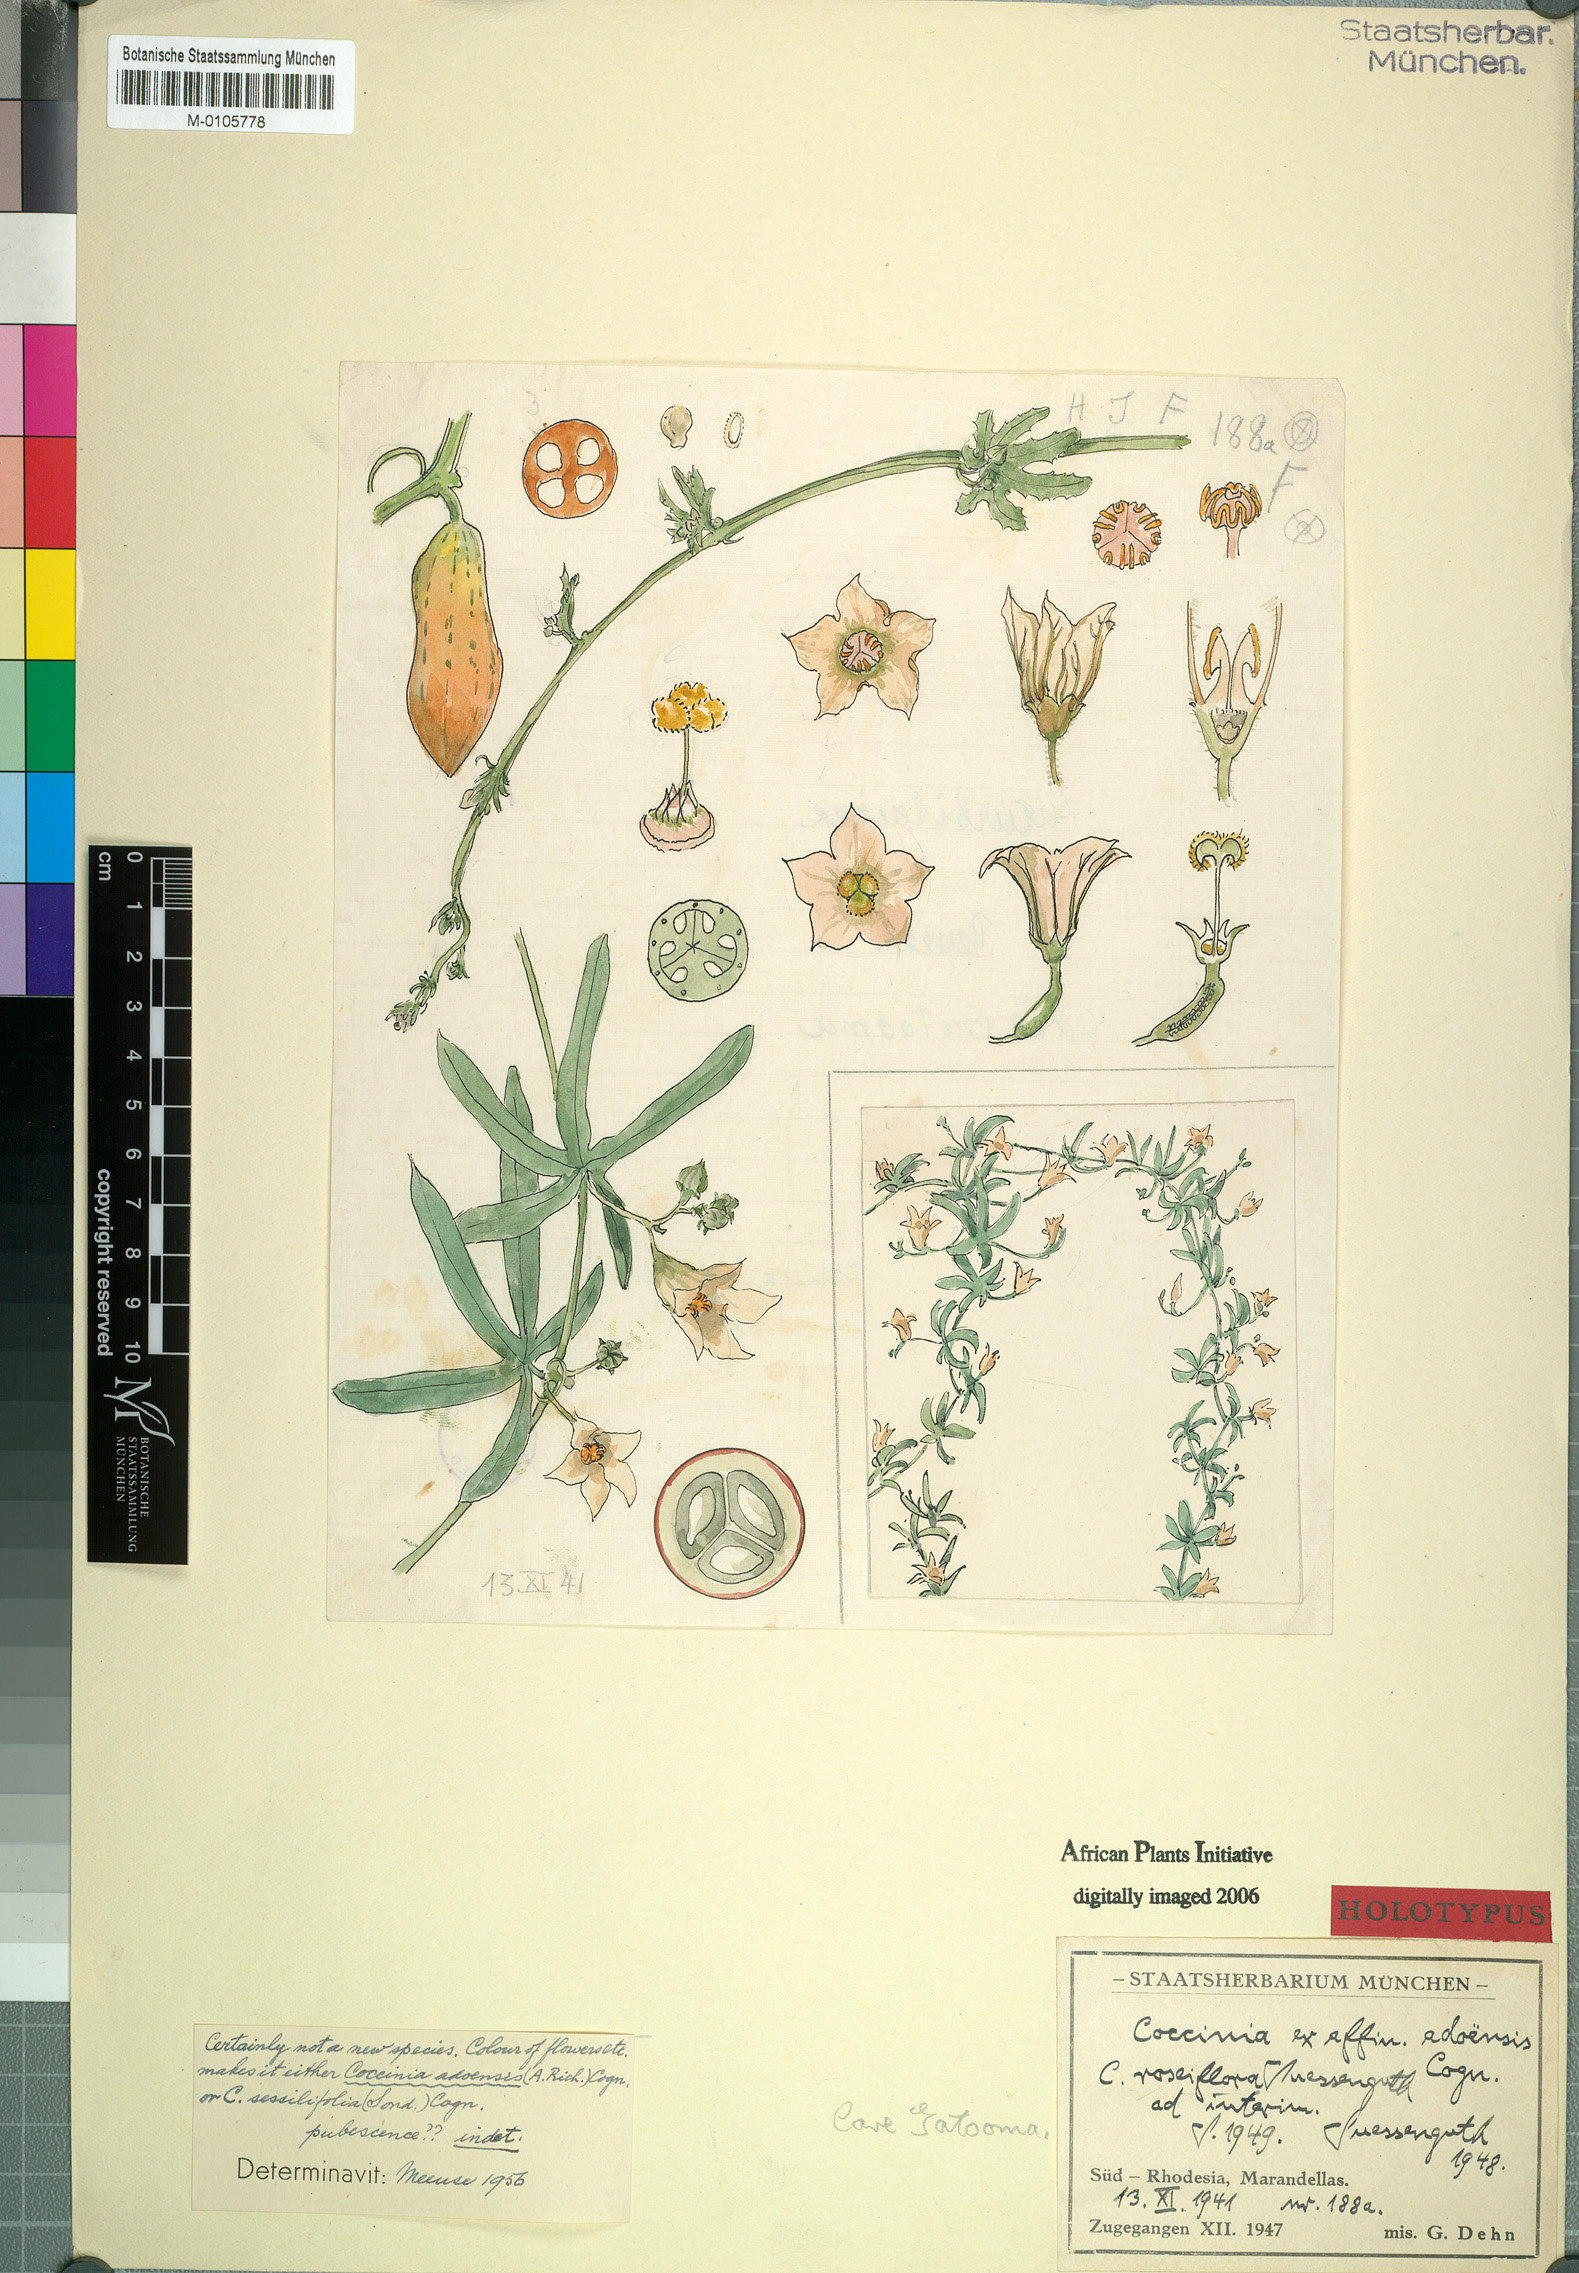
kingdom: Plantae
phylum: Tracheophyta
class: Magnoliopsida
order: Cucurbitales
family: Cucurbitaceae
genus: Coccinia
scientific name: Coccinia adoensis
